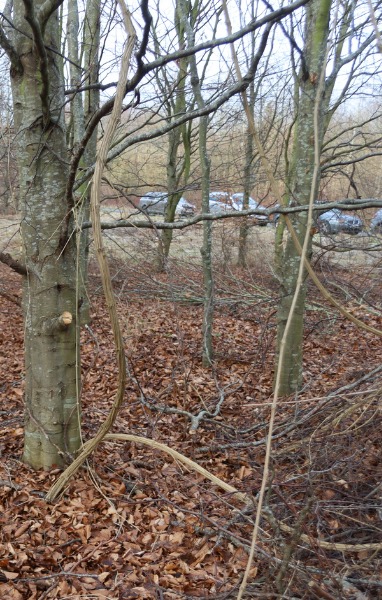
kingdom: Plantae
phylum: Tracheophyta
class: Magnoliopsida
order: Dipsacales
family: Caprifoliaceae
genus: Lonicera
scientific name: Lonicera periclymenum
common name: Almindelig gedeblad
